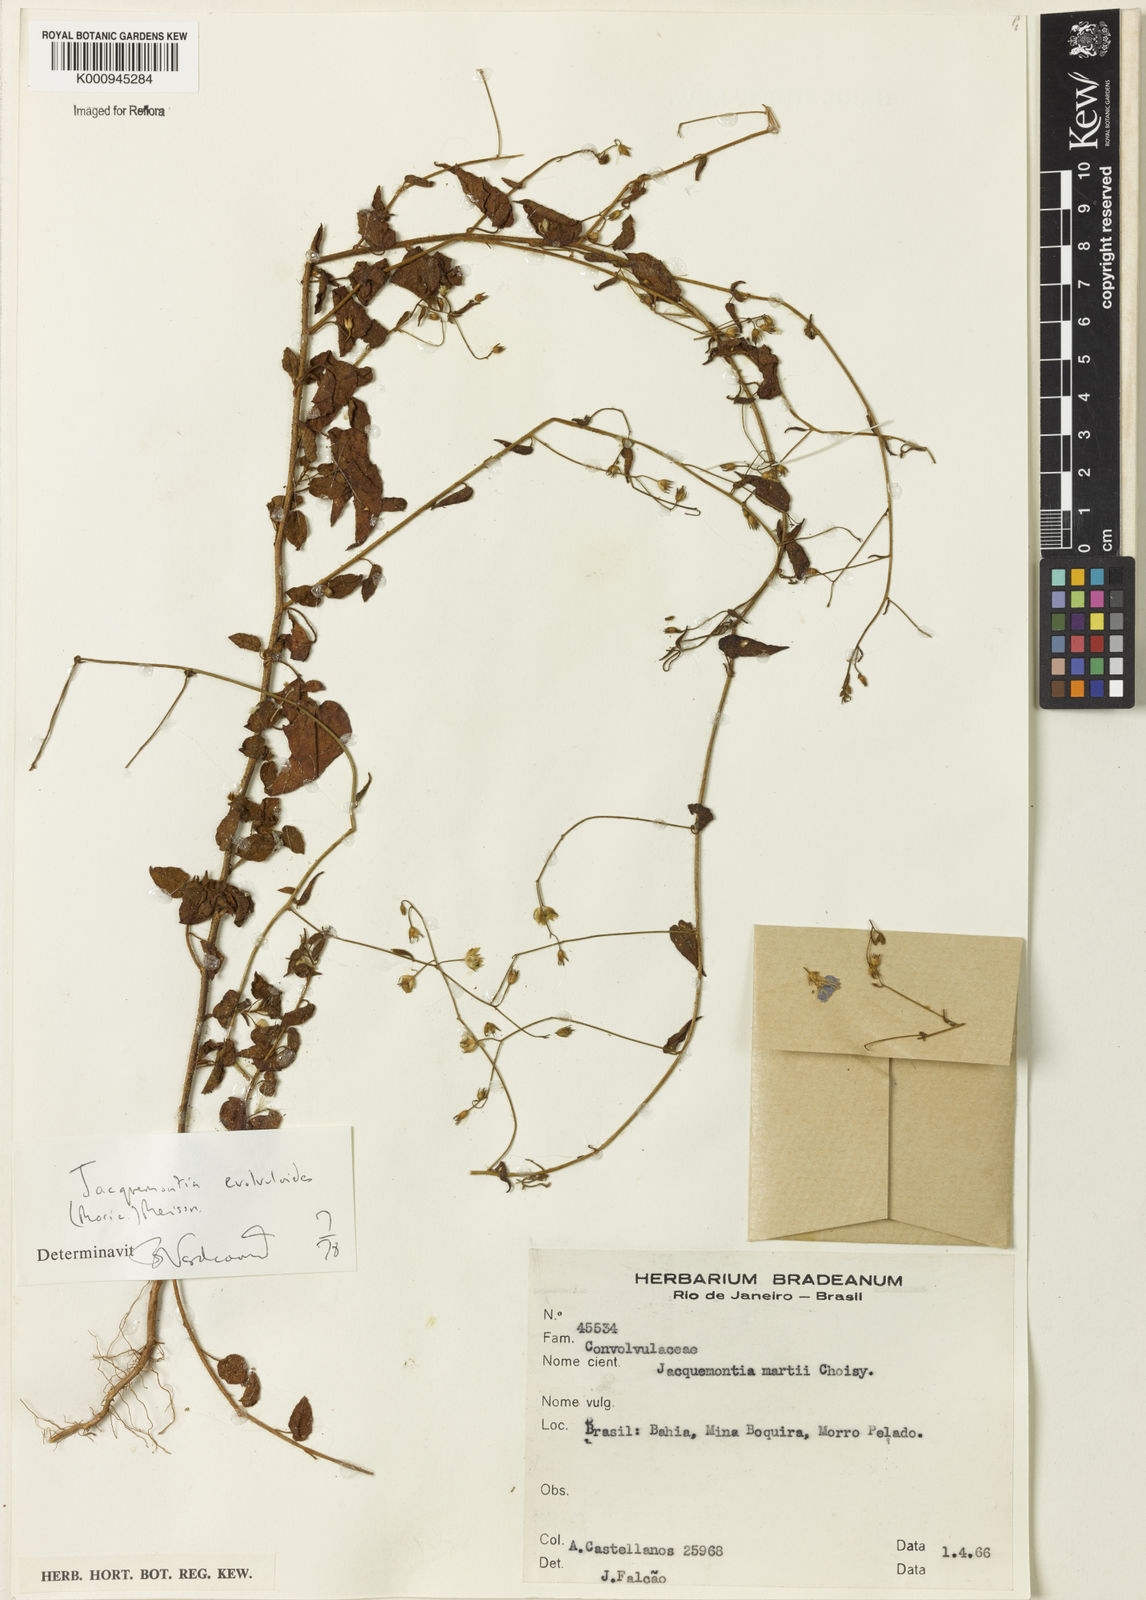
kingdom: Plantae
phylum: Tracheophyta
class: Magnoliopsida
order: Solanales
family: Convolvulaceae
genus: Jacquemontia
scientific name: Jacquemontia evolvuloides
